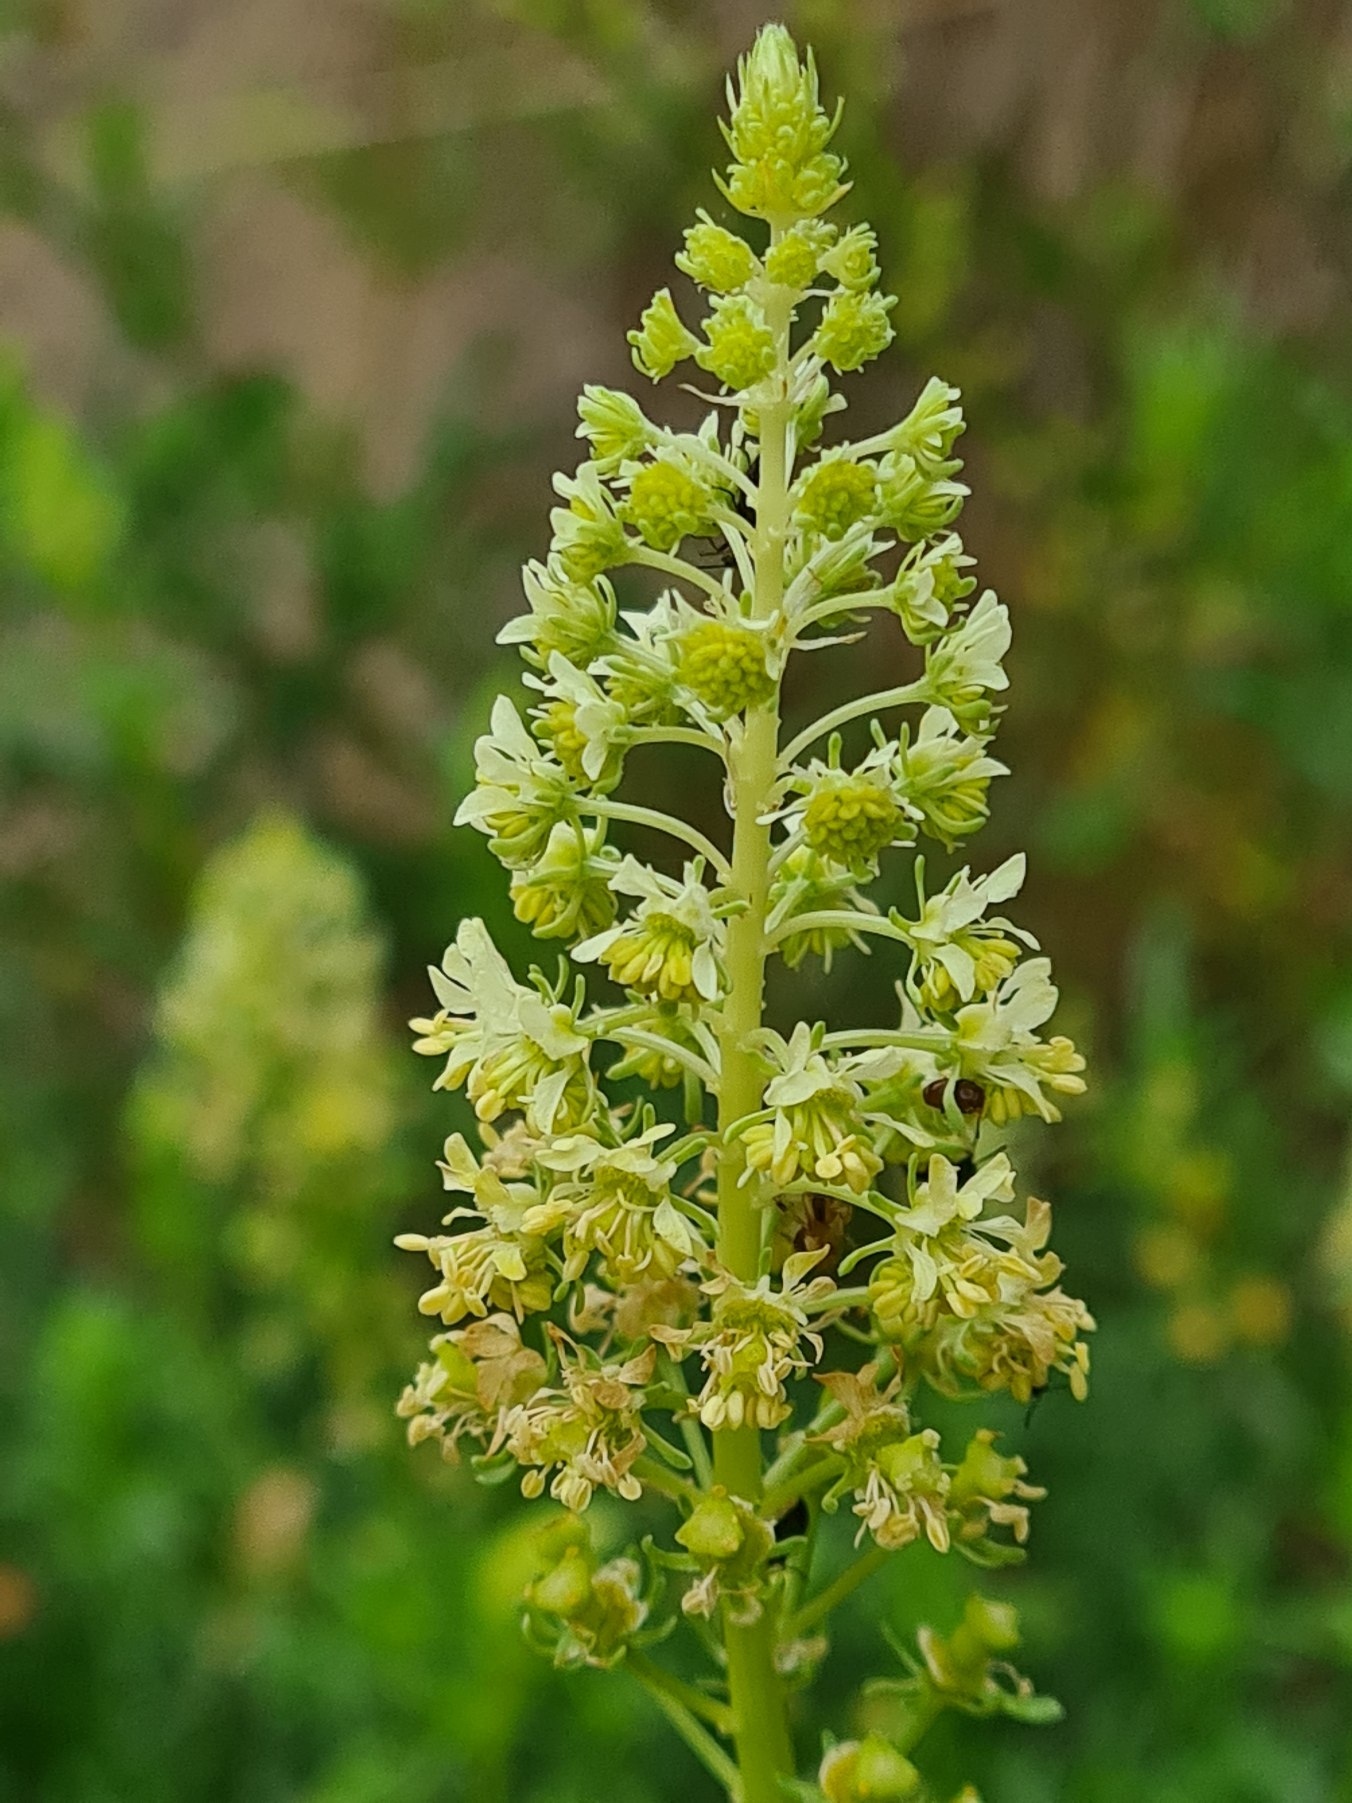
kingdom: Plantae
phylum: Tracheophyta
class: Magnoliopsida
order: Brassicales
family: Resedaceae
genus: Reseda
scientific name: Reseda lutea
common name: Gul reseda
